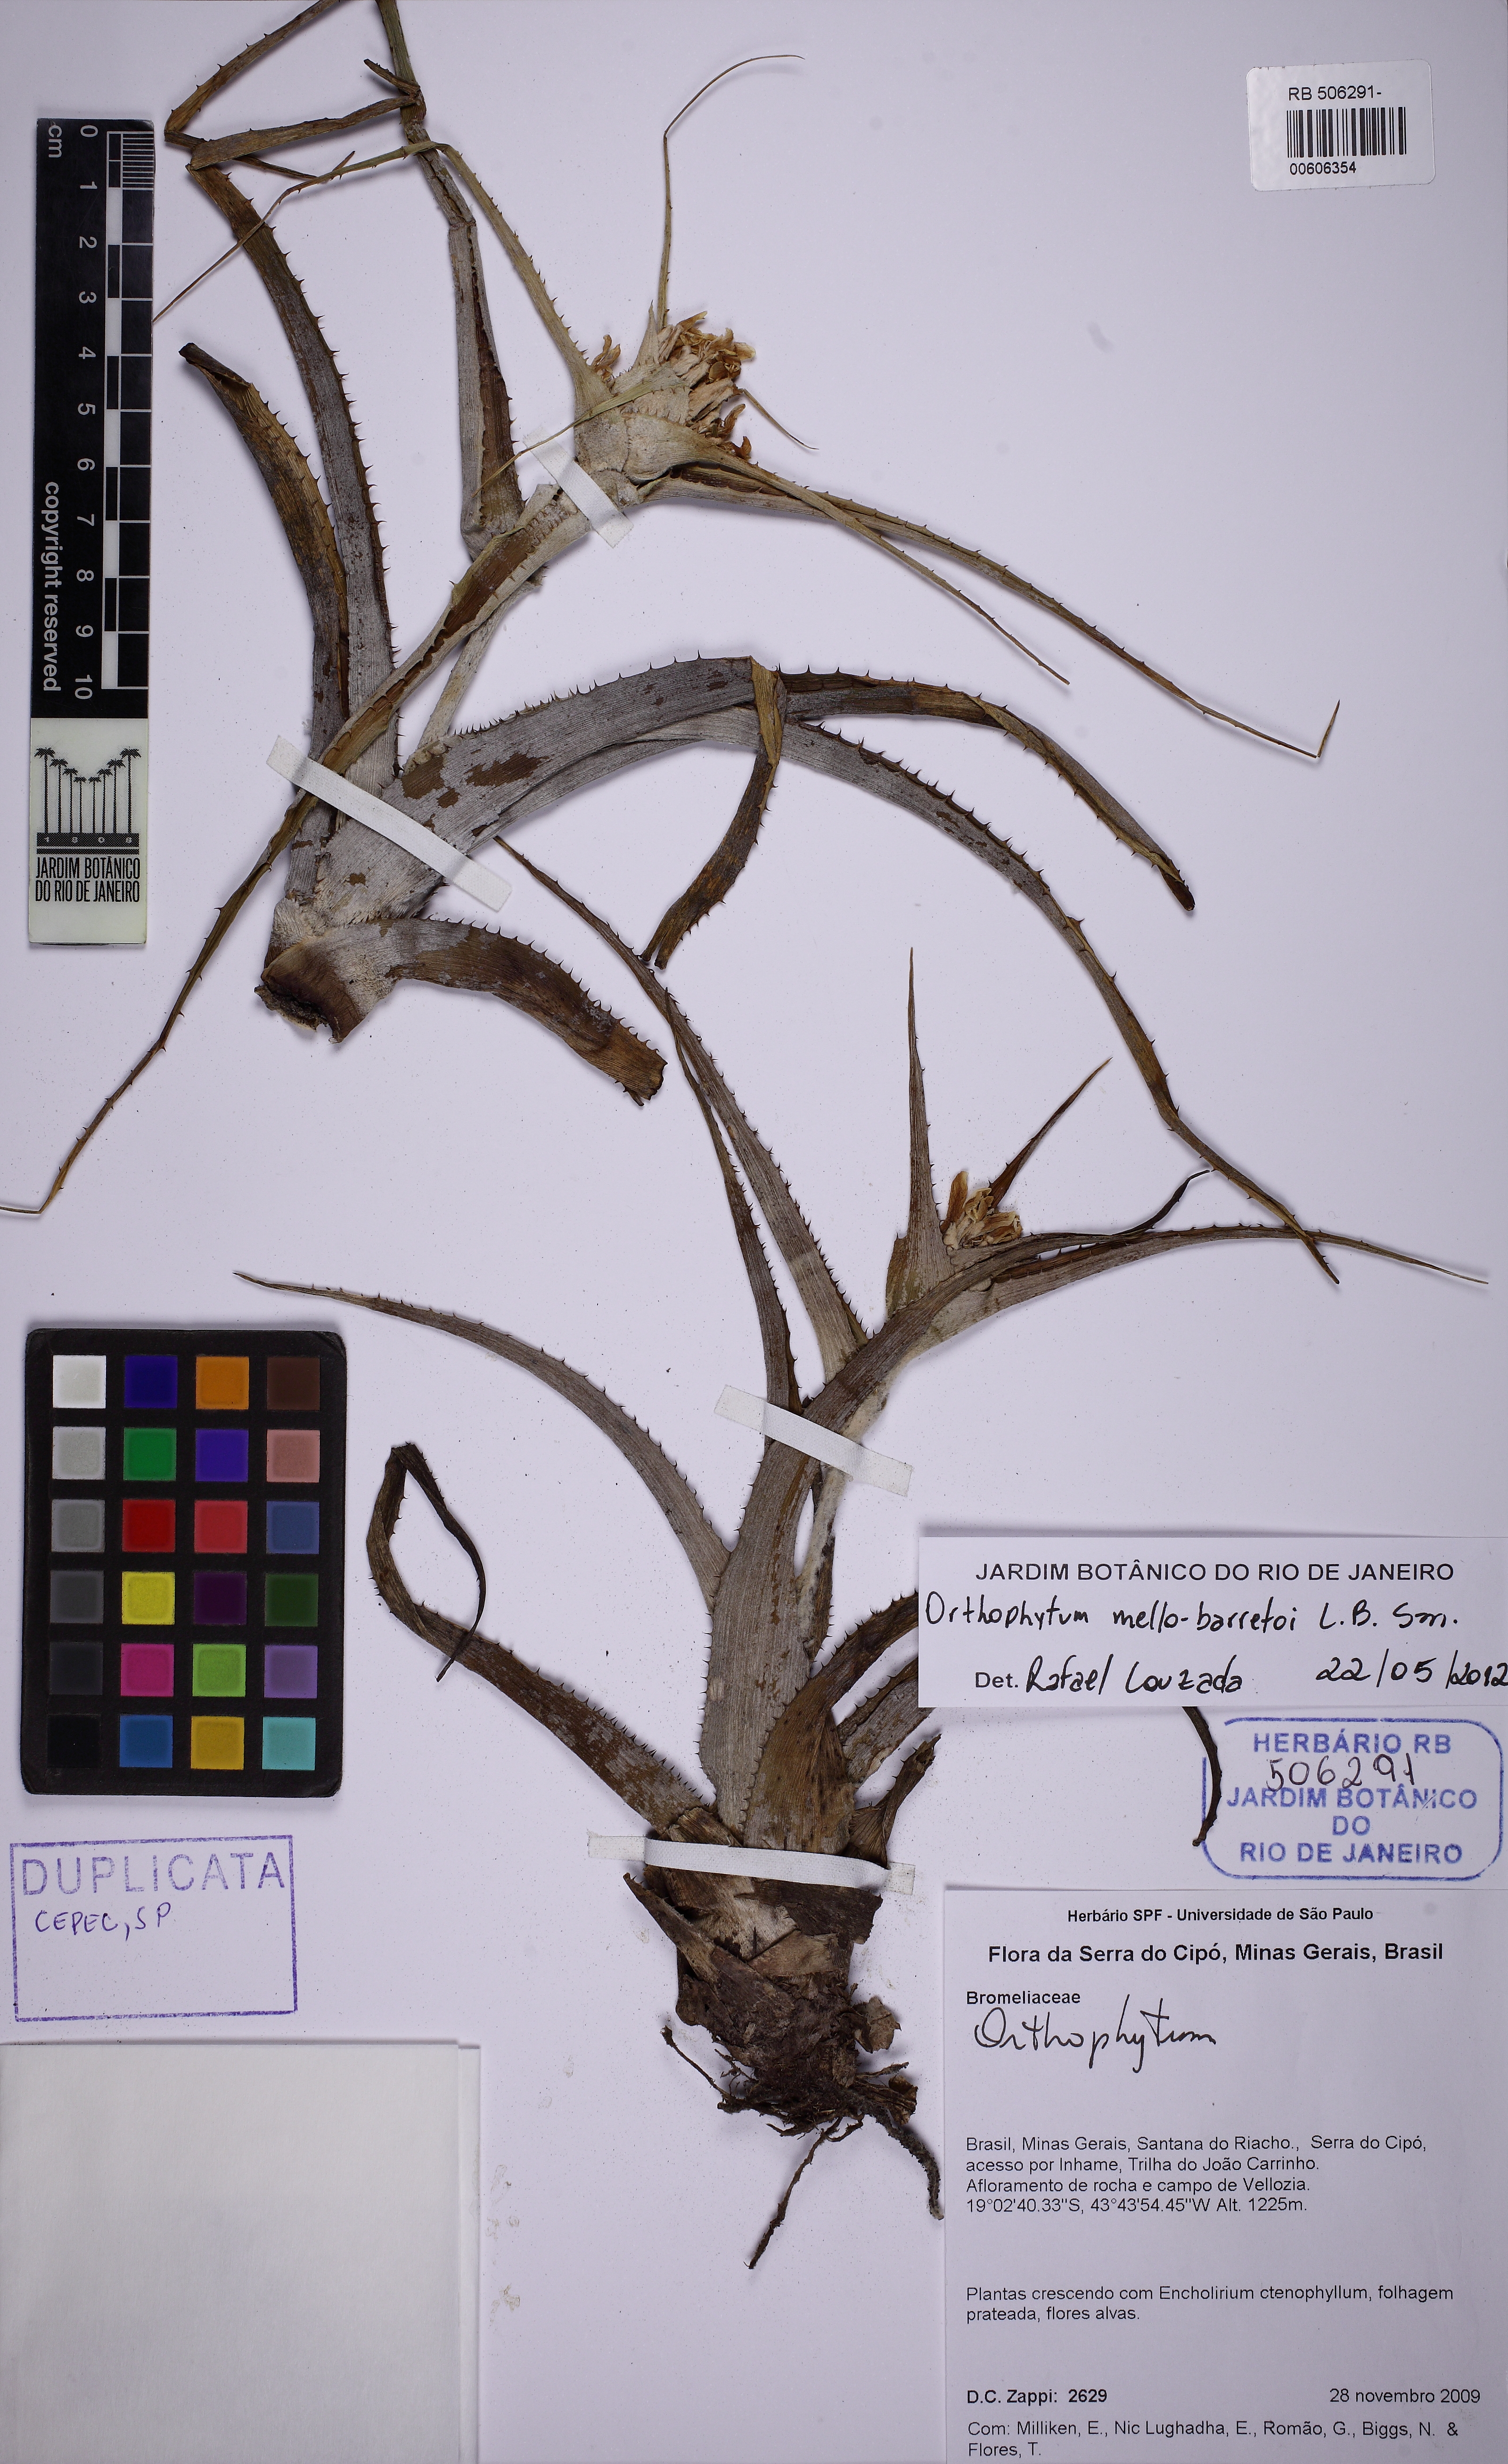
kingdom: Plantae
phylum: Tracheophyta
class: Liliopsida
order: Poales
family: Bromeliaceae
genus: Orthophytum
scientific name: Orthophytum mello-barretoi
